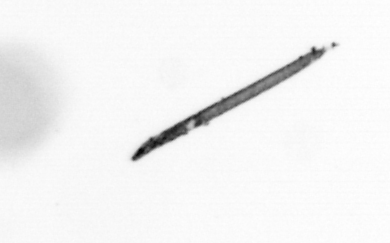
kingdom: Bacteria
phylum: Cyanobacteria
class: Cyanobacteriia
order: Cyanobacteriales
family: Microcoleaceae
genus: Trichodesmium
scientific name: Trichodesmium
